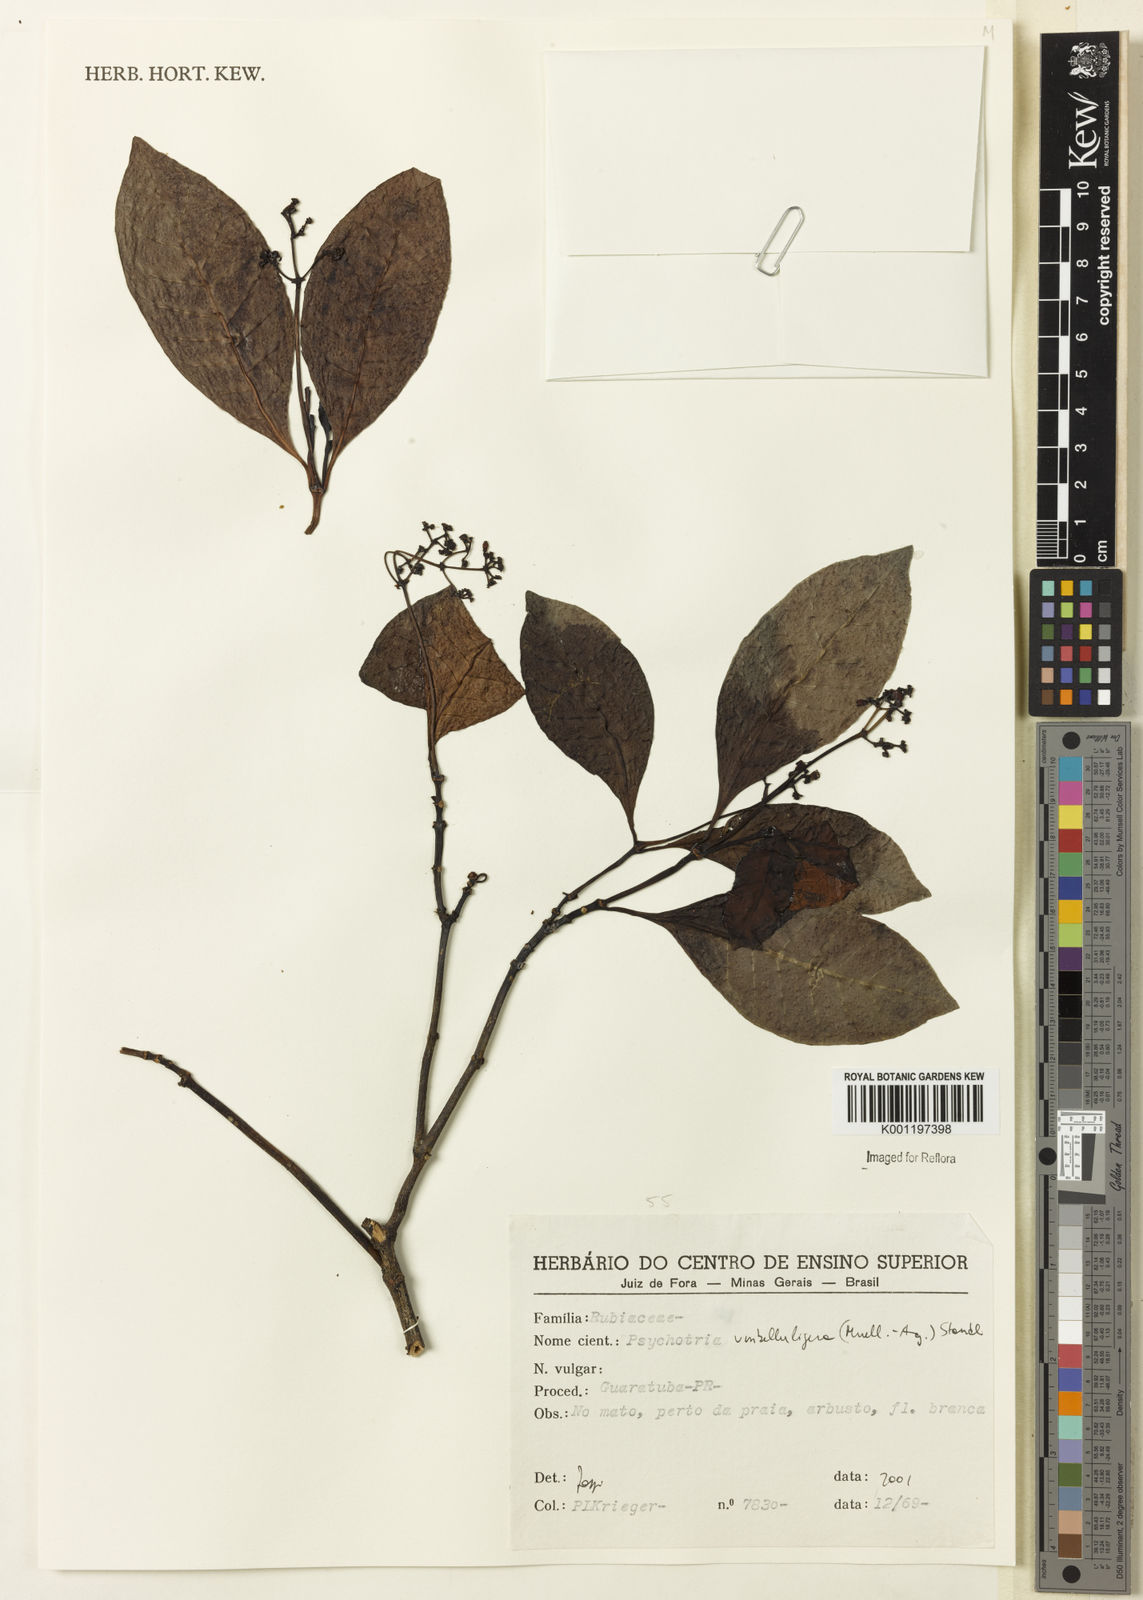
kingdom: Plantae
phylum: Tracheophyta
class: Magnoliopsida
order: Gentianales
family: Rubiaceae
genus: Psychotria
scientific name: Psychotria nemorosa
